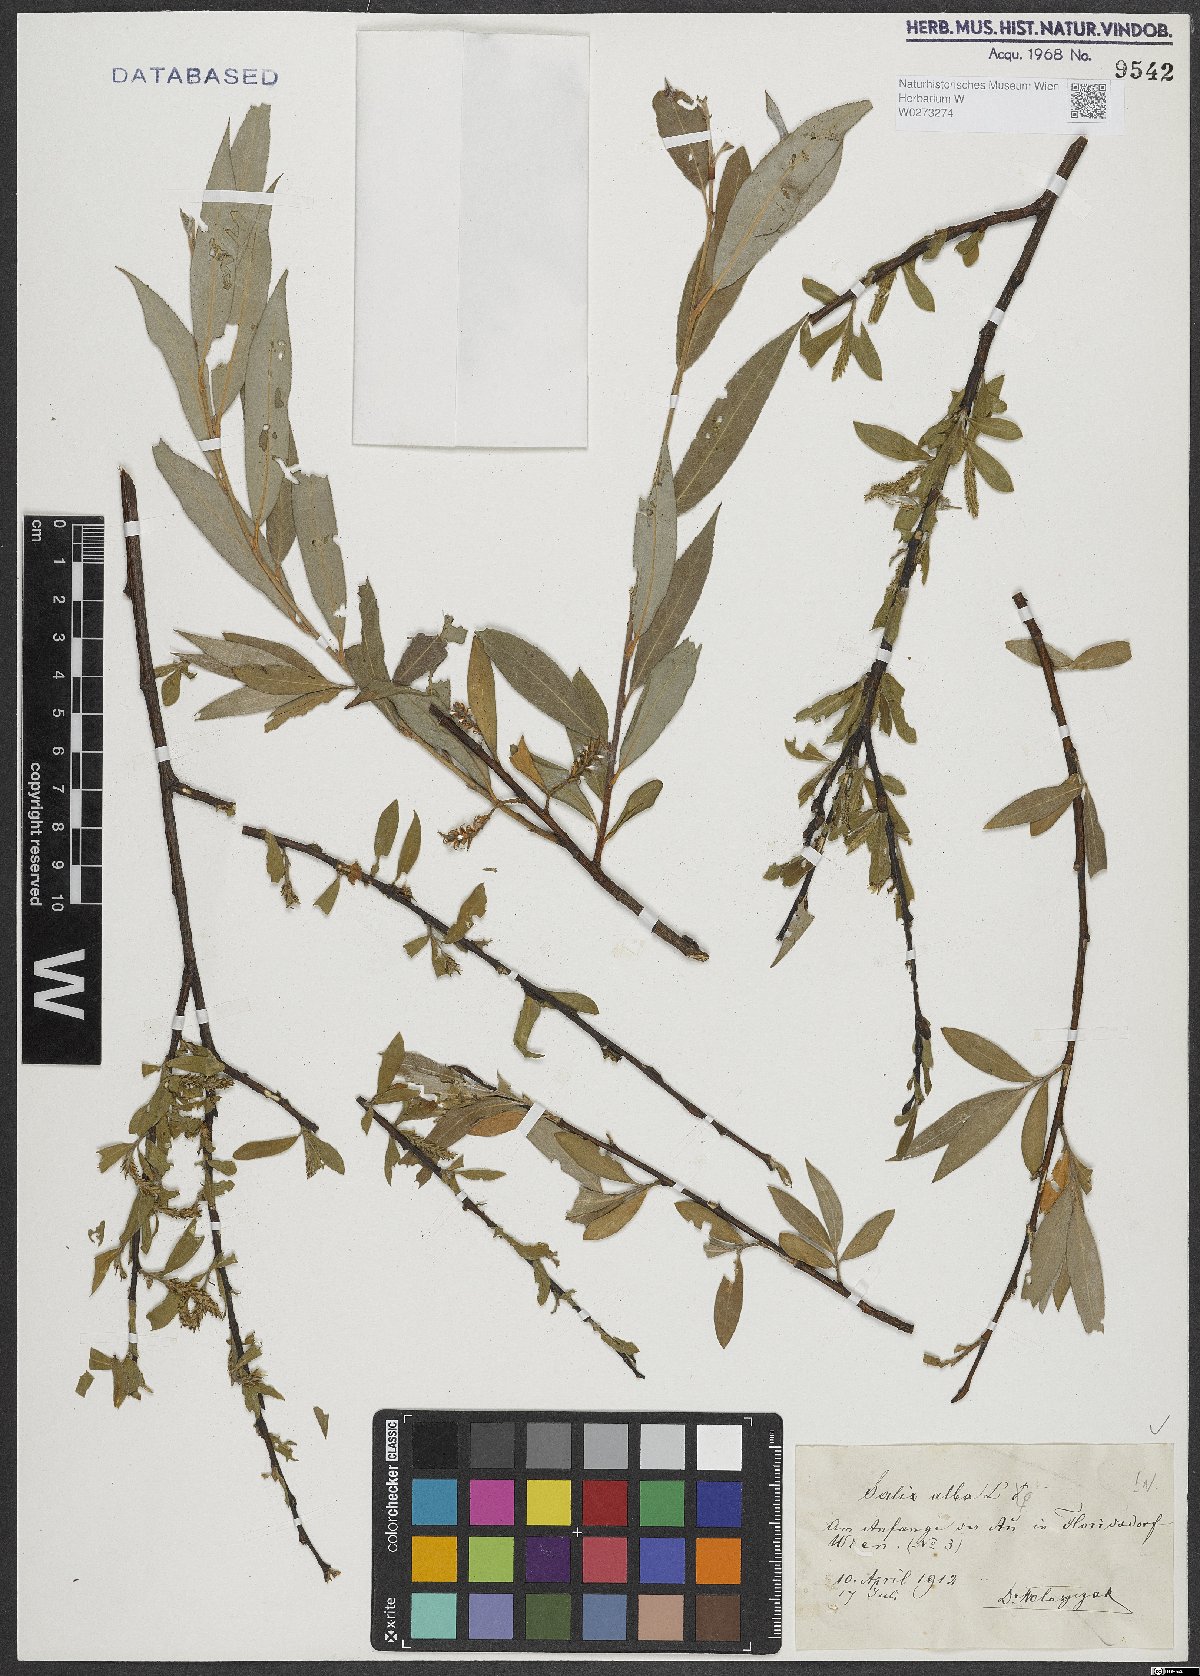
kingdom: Plantae
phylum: Tracheophyta
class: Magnoliopsida
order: Malpighiales
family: Salicaceae
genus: Salix
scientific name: Salix alba
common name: White willow
